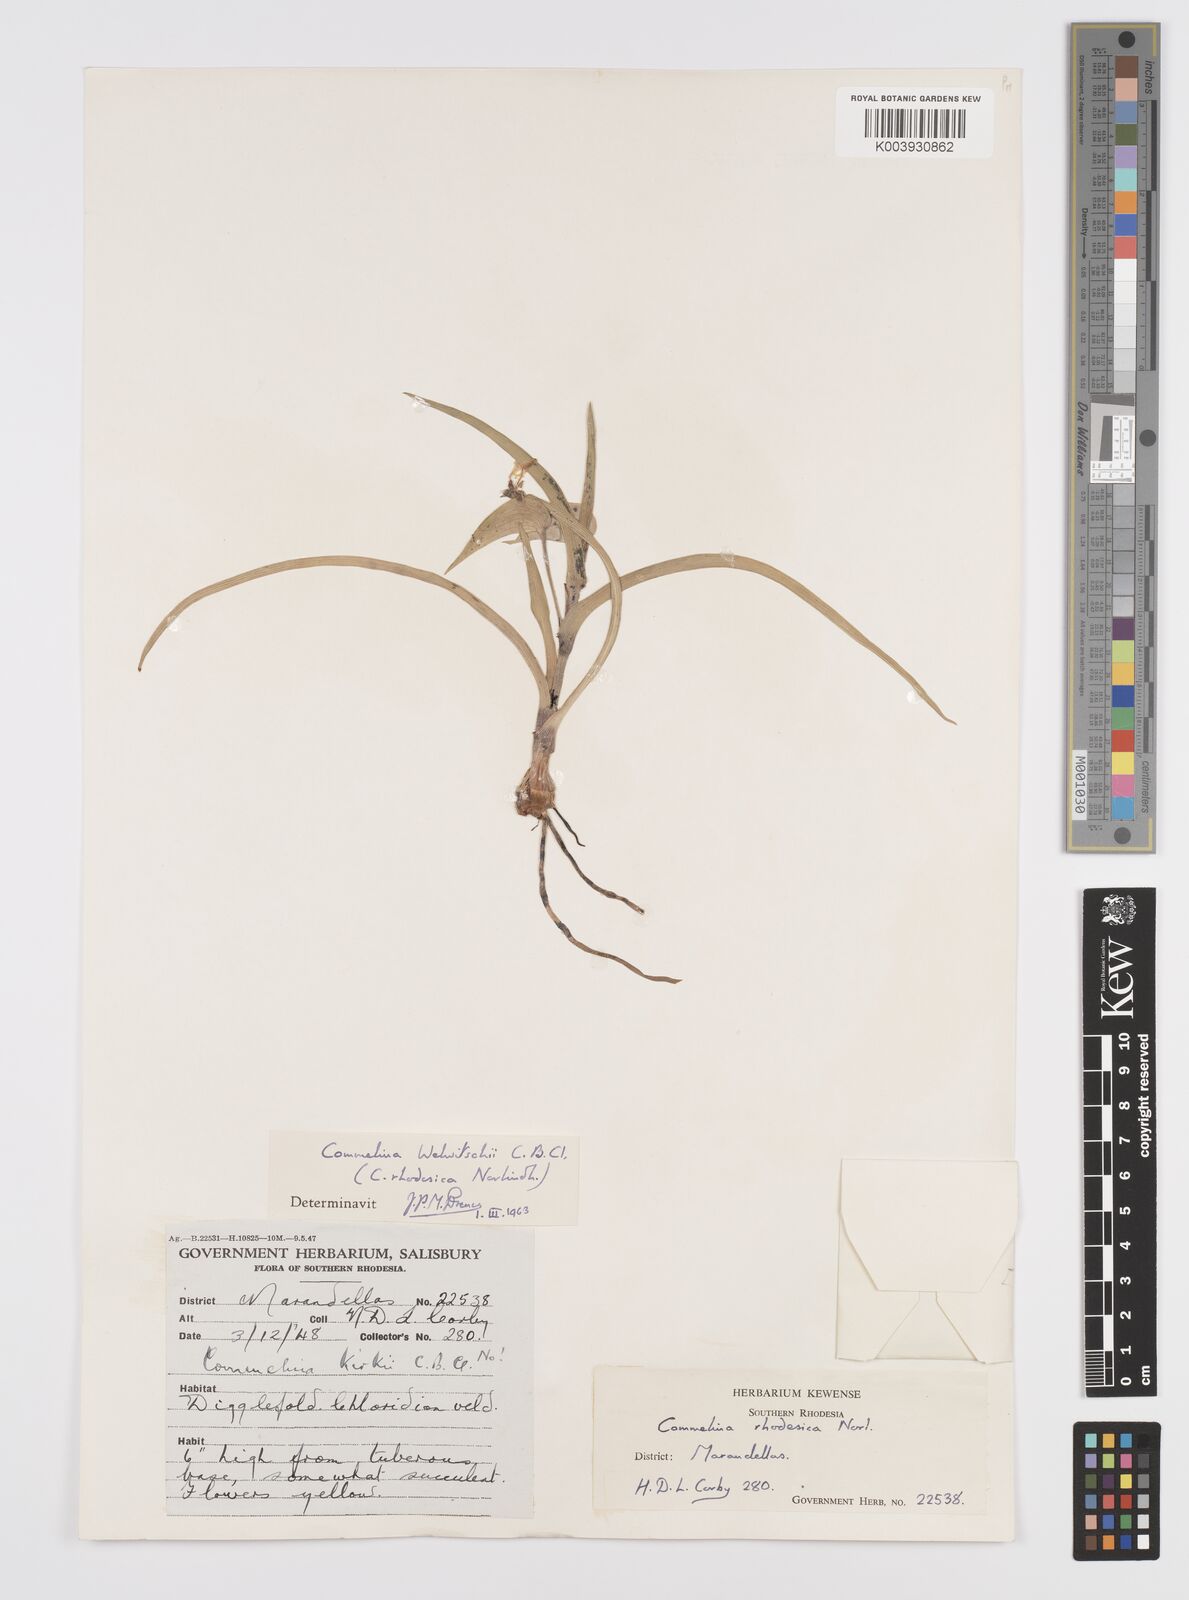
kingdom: Plantae
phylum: Tracheophyta
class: Liliopsida
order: Commelinales
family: Commelinaceae
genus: Commelina
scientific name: Commelina welwitschii
